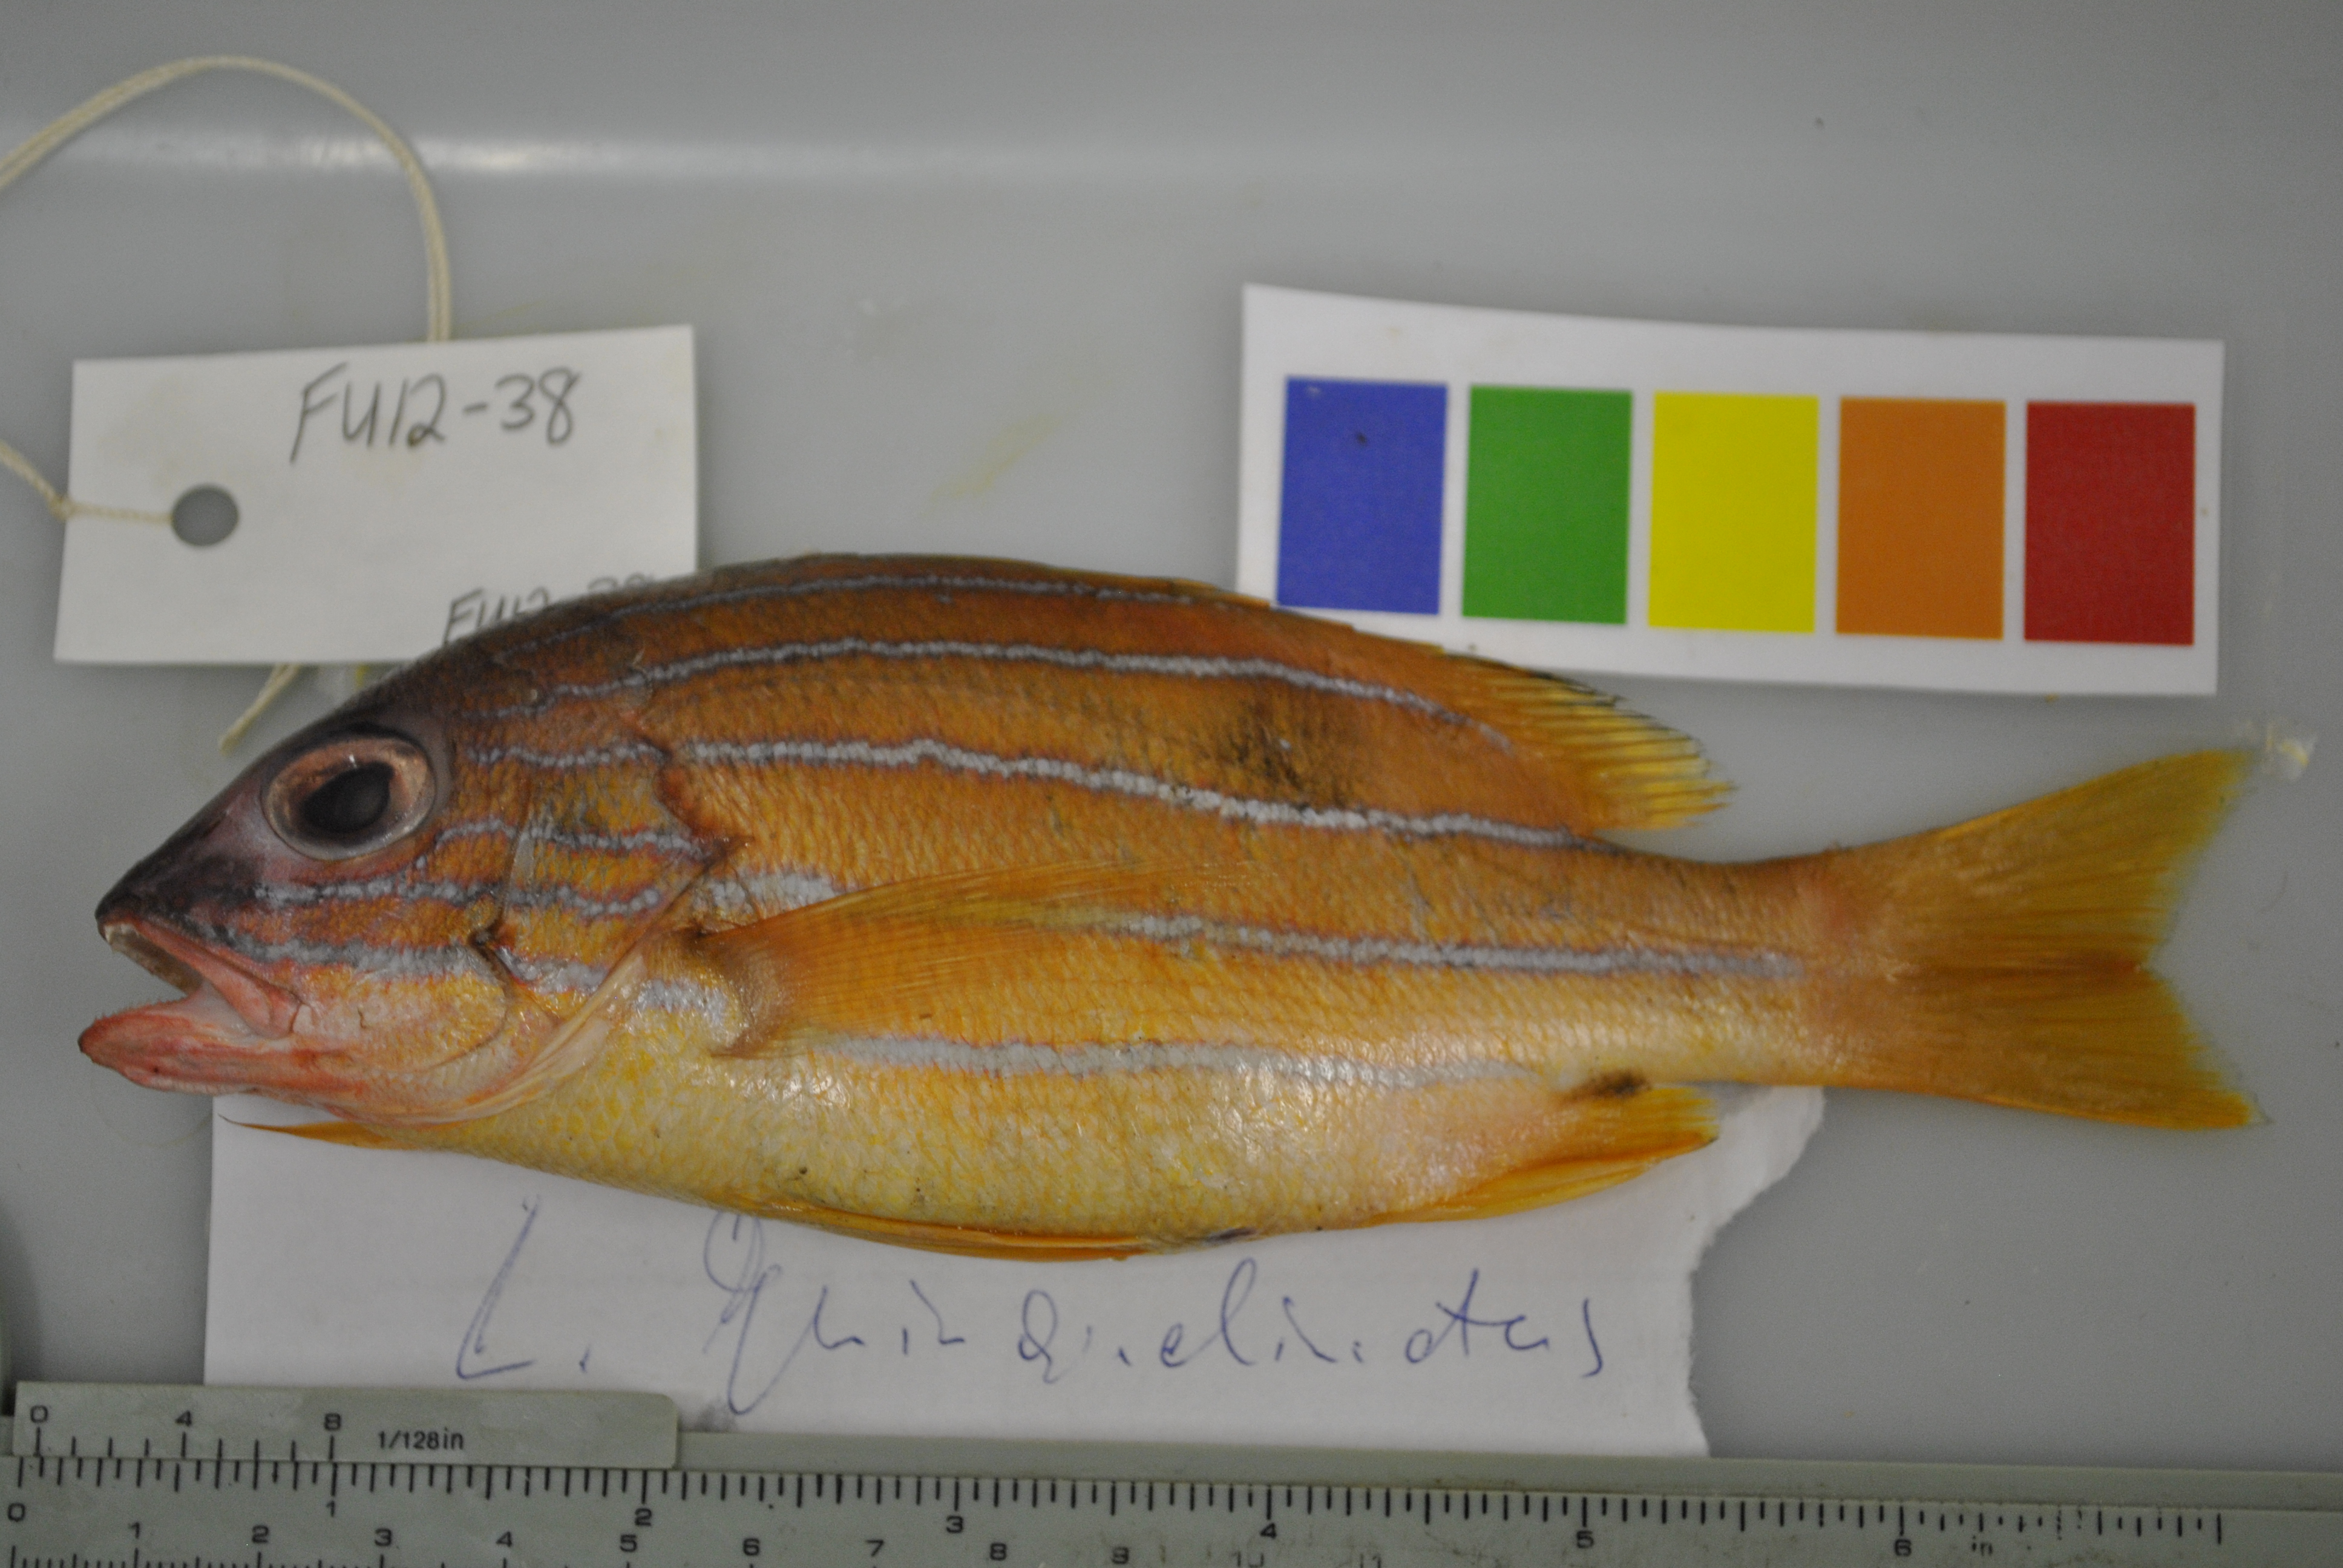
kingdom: Animalia
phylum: Chordata
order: Perciformes
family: Lutjanidae
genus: Lutjanus
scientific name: Lutjanus quinquelineatus
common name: Five-lined snapper
